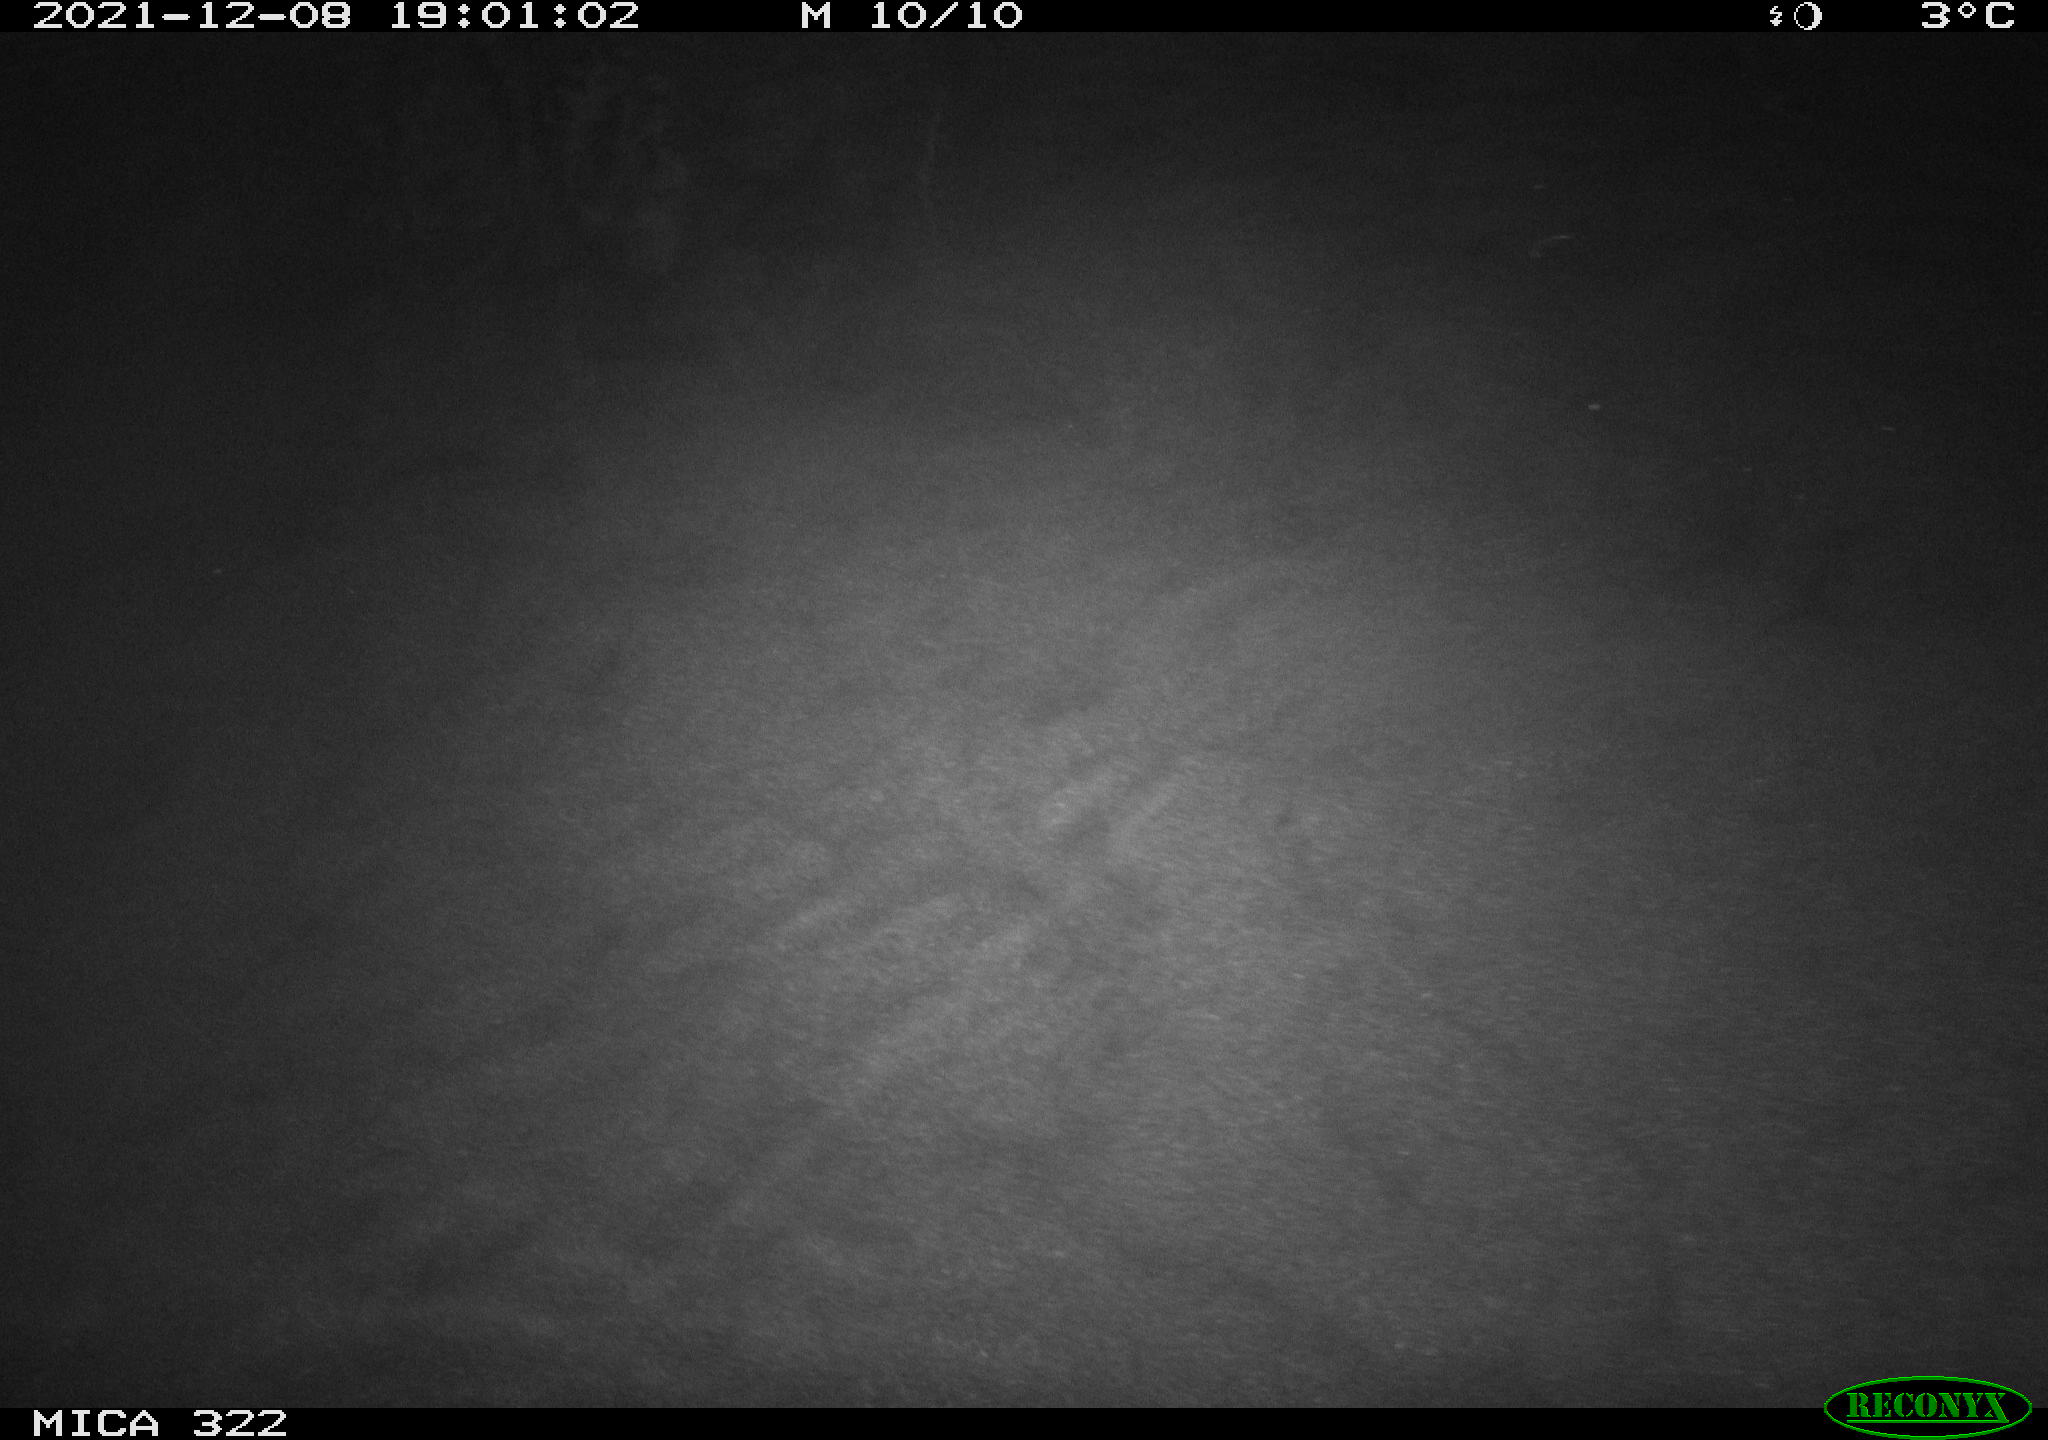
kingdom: Animalia
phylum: Chordata
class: Mammalia
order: Rodentia
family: Muridae
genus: Rattus
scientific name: Rattus norvegicus
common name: Brown rat
